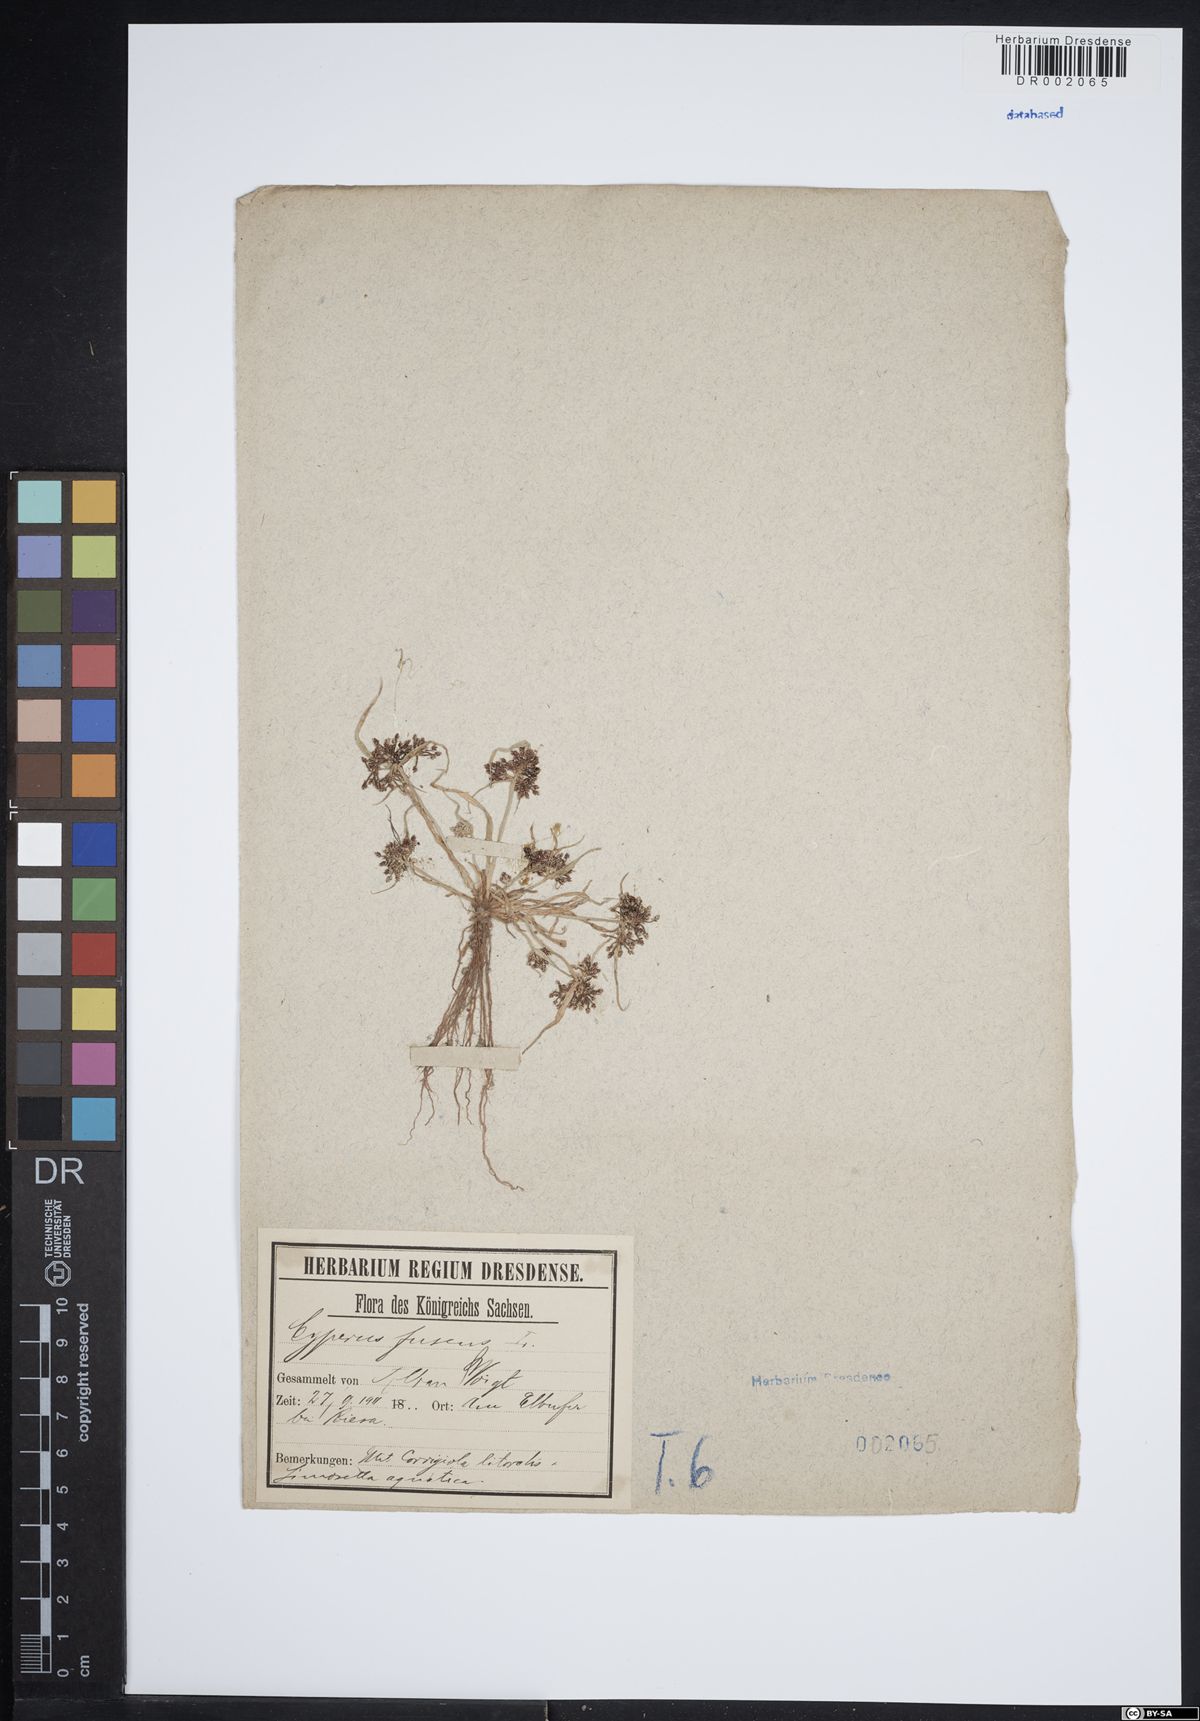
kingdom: Plantae
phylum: Tracheophyta
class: Liliopsida
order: Poales
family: Cyperaceae
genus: Cyperus
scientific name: Cyperus fuscus
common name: Brown galingale
